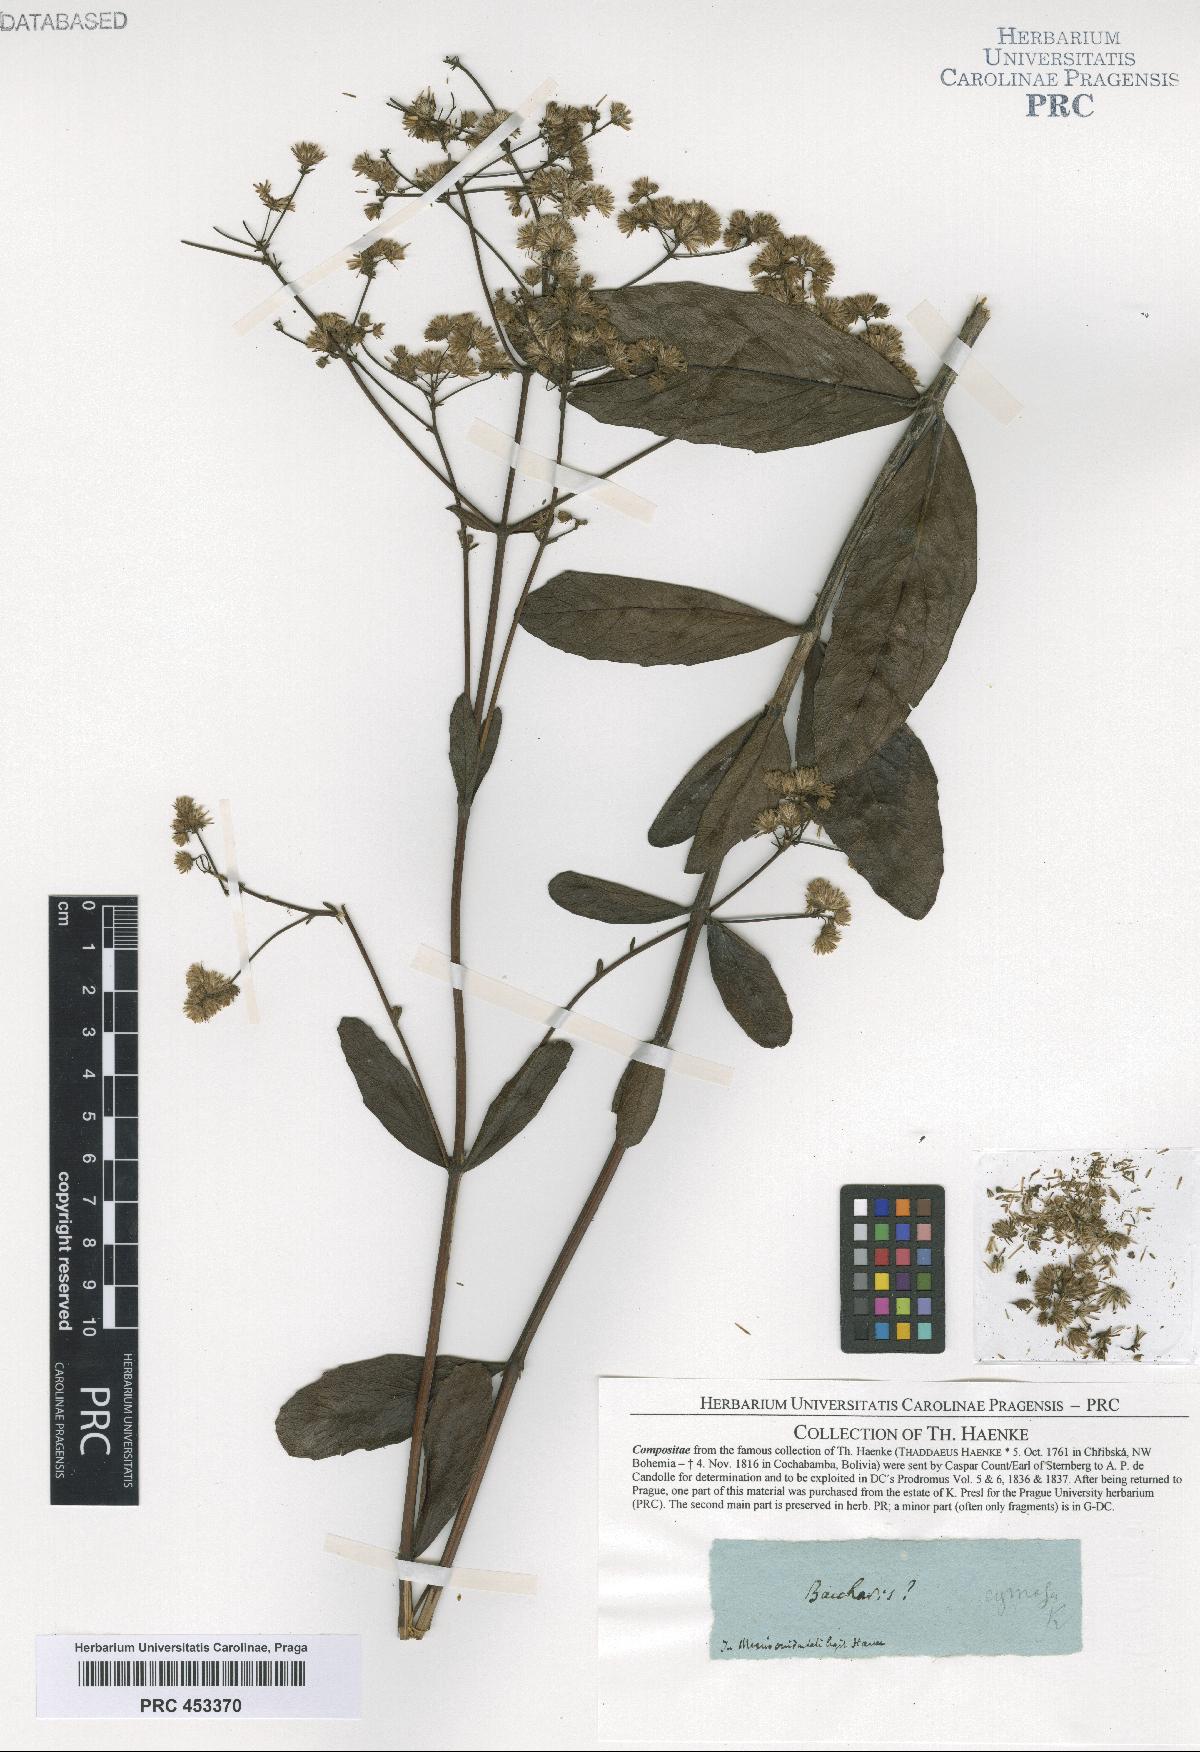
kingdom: Plantae
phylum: Tracheophyta
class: Magnoliopsida
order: Asterales
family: Asteraceae
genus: Baccharis
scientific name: Baccharis
